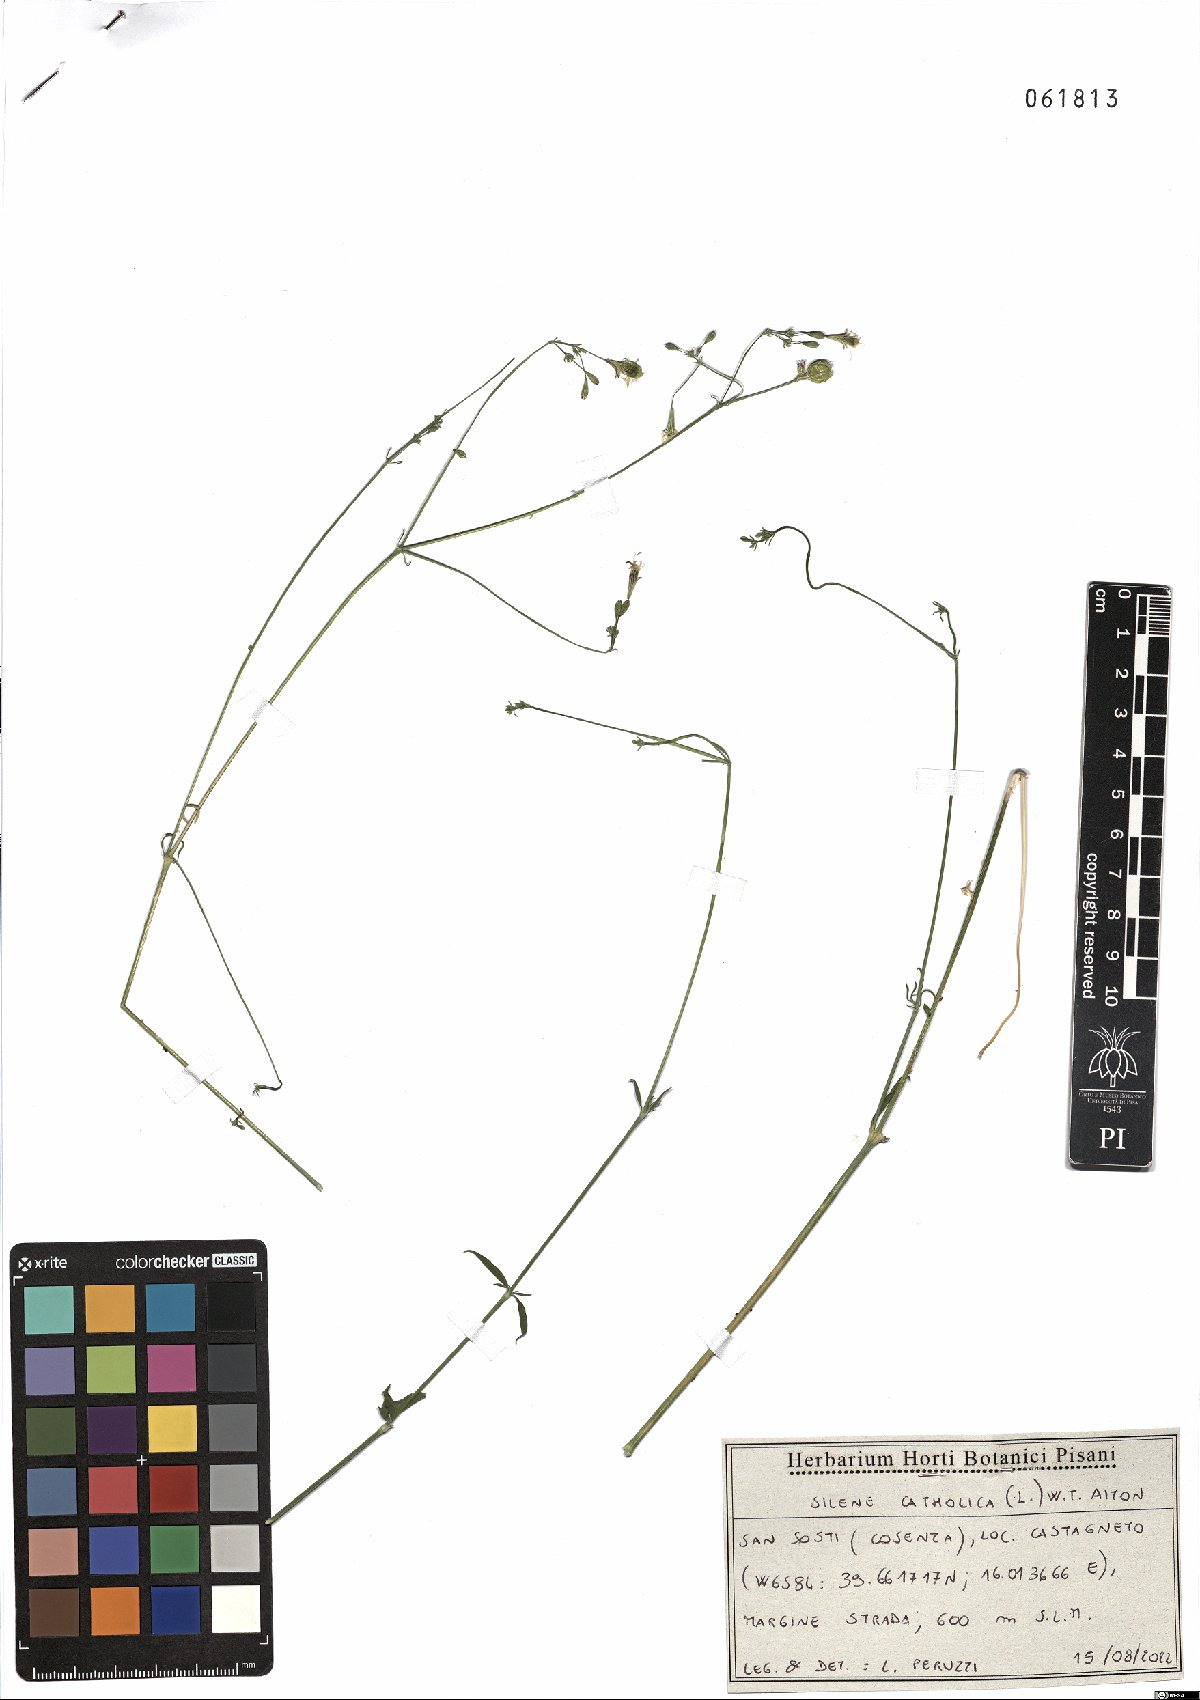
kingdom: Plantae
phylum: Tracheophyta
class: Magnoliopsida
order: Caryophyllales
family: Caryophyllaceae
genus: Silene
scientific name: Silene catholica
